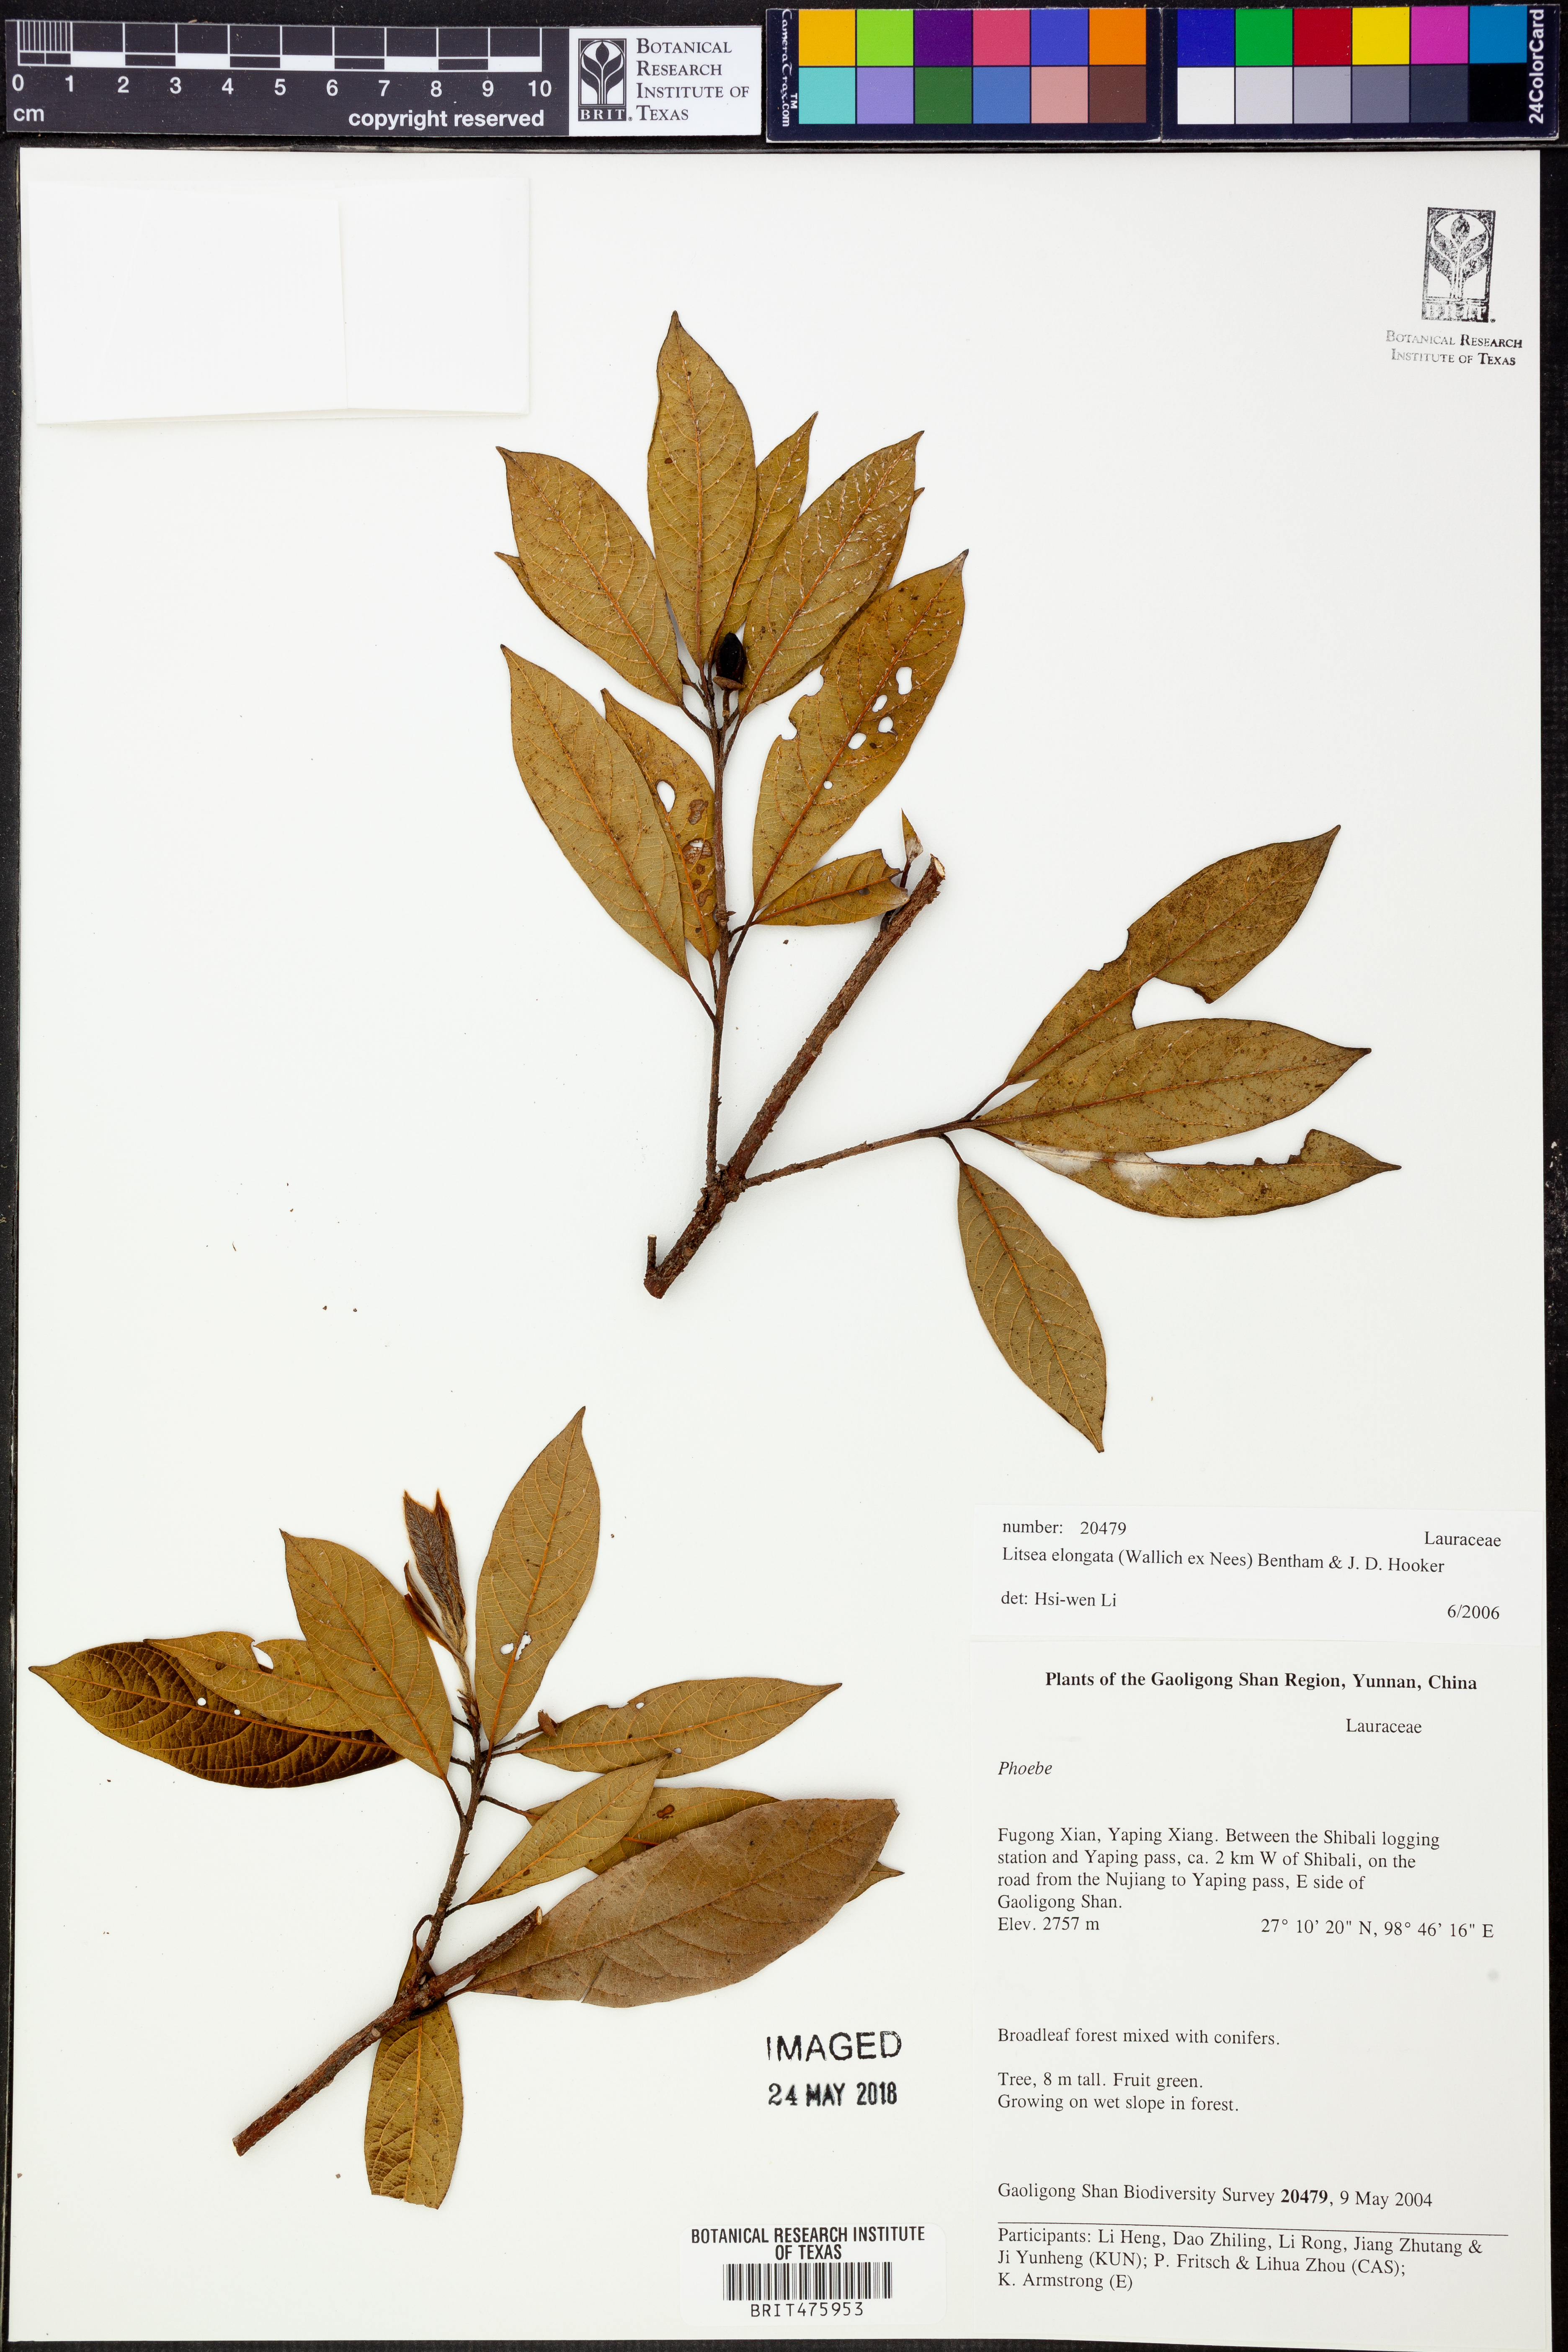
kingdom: Plantae
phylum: Tracheophyta
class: Magnoliopsida
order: Laurales
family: Lauraceae
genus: Litsea
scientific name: Litsea elongata
